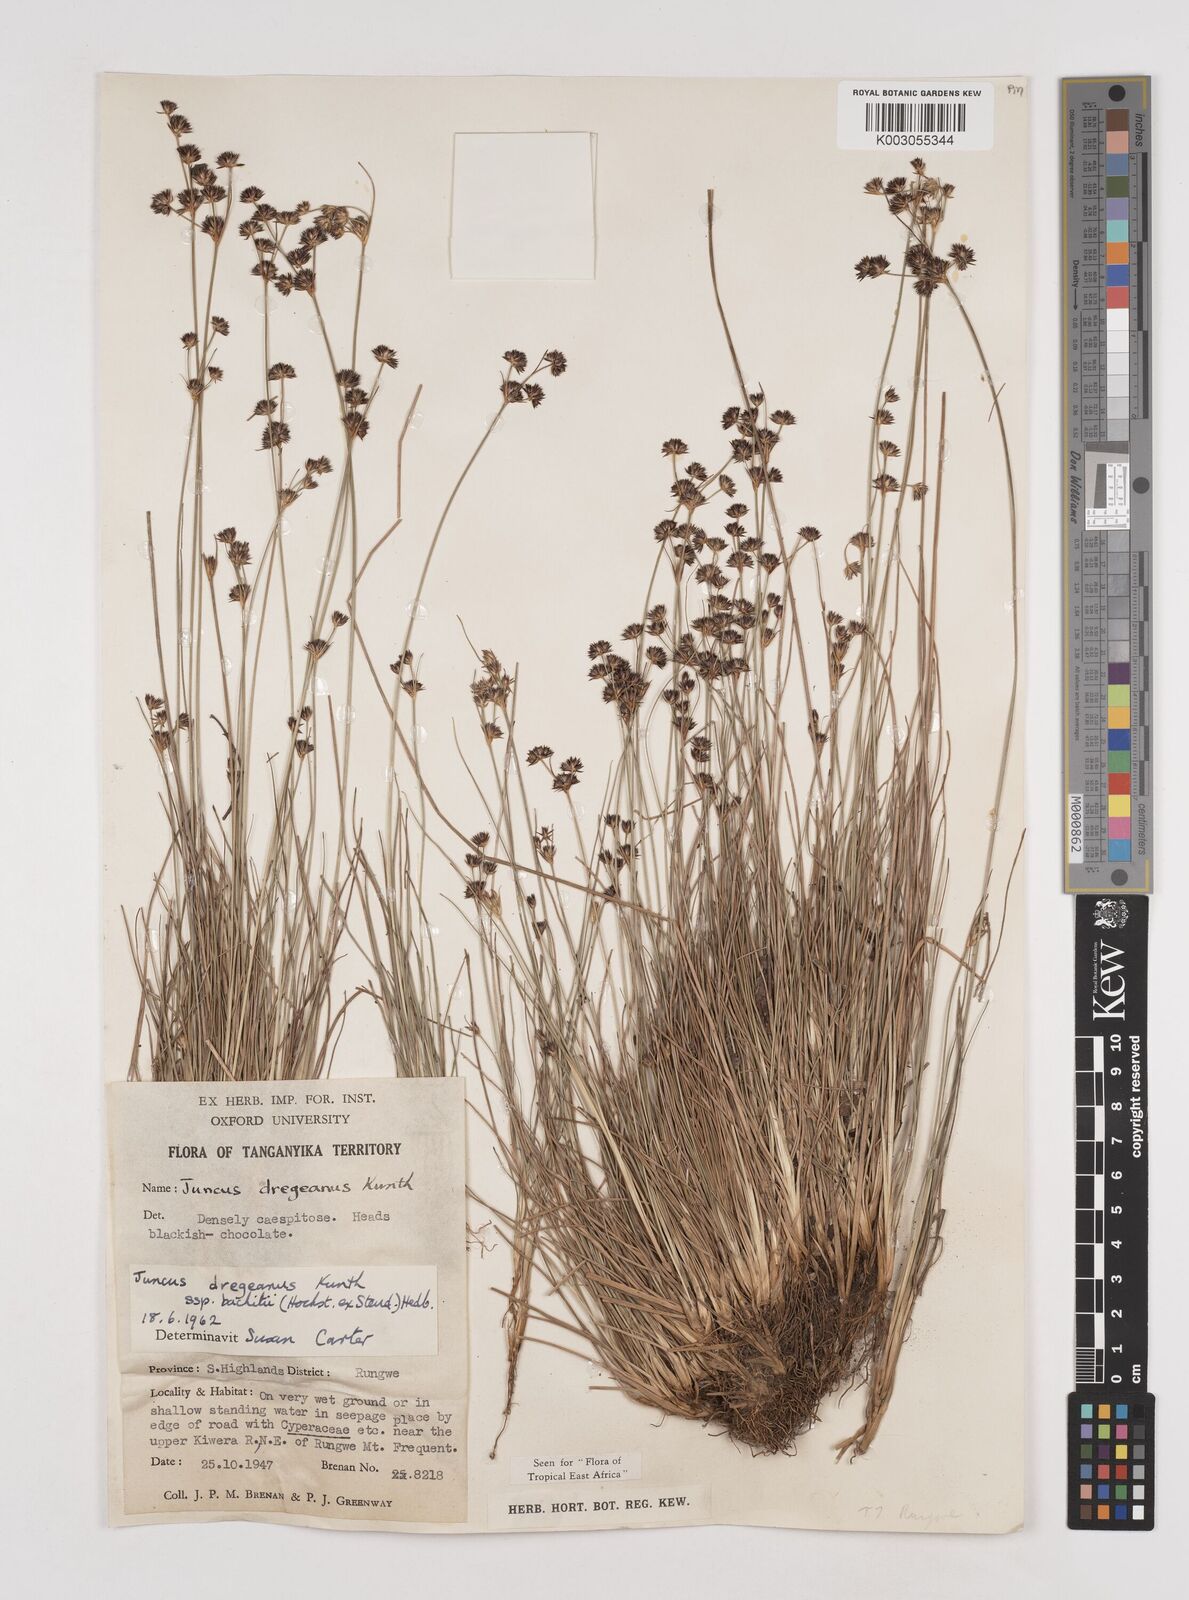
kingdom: Plantae
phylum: Tracheophyta
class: Liliopsida
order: Poales
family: Juncaceae
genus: Juncus
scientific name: Juncus dregeanus
